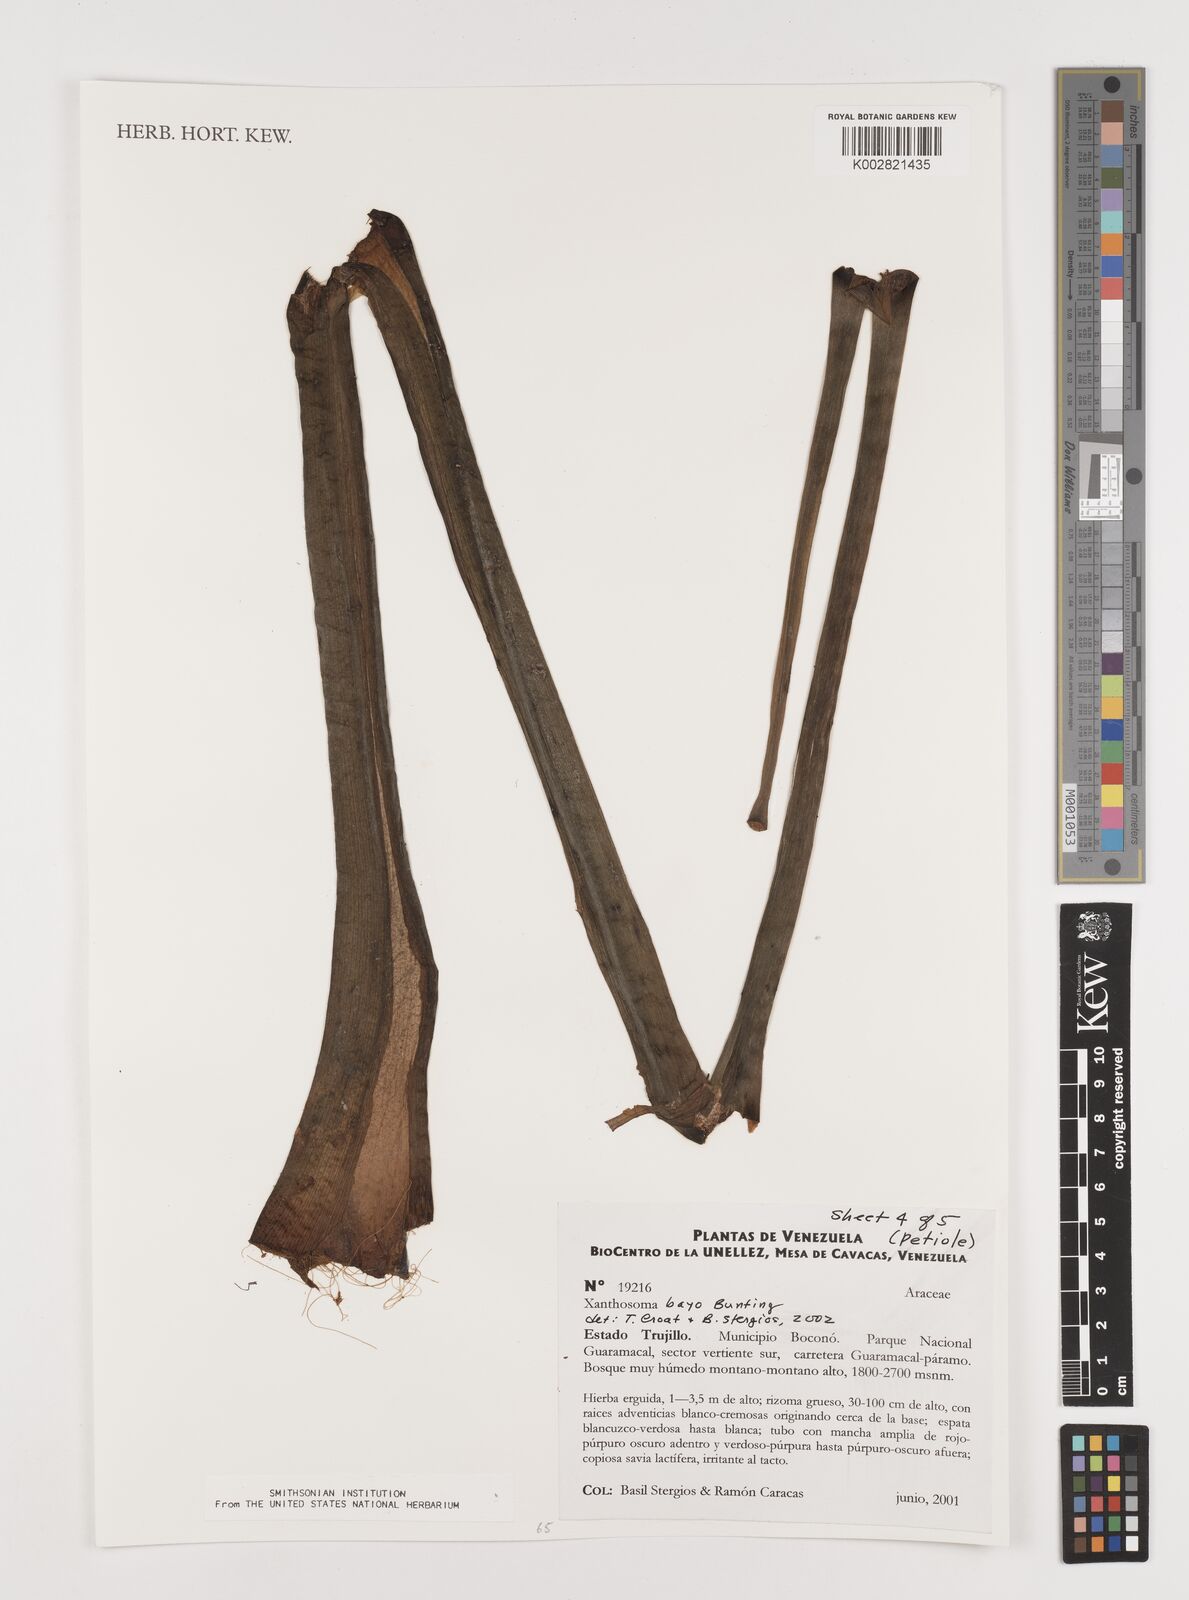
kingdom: Plantae
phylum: Tracheophyta
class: Liliopsida
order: Alismatales
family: Araceae
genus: Xanthosoma
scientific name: Xanthosoma bayo
